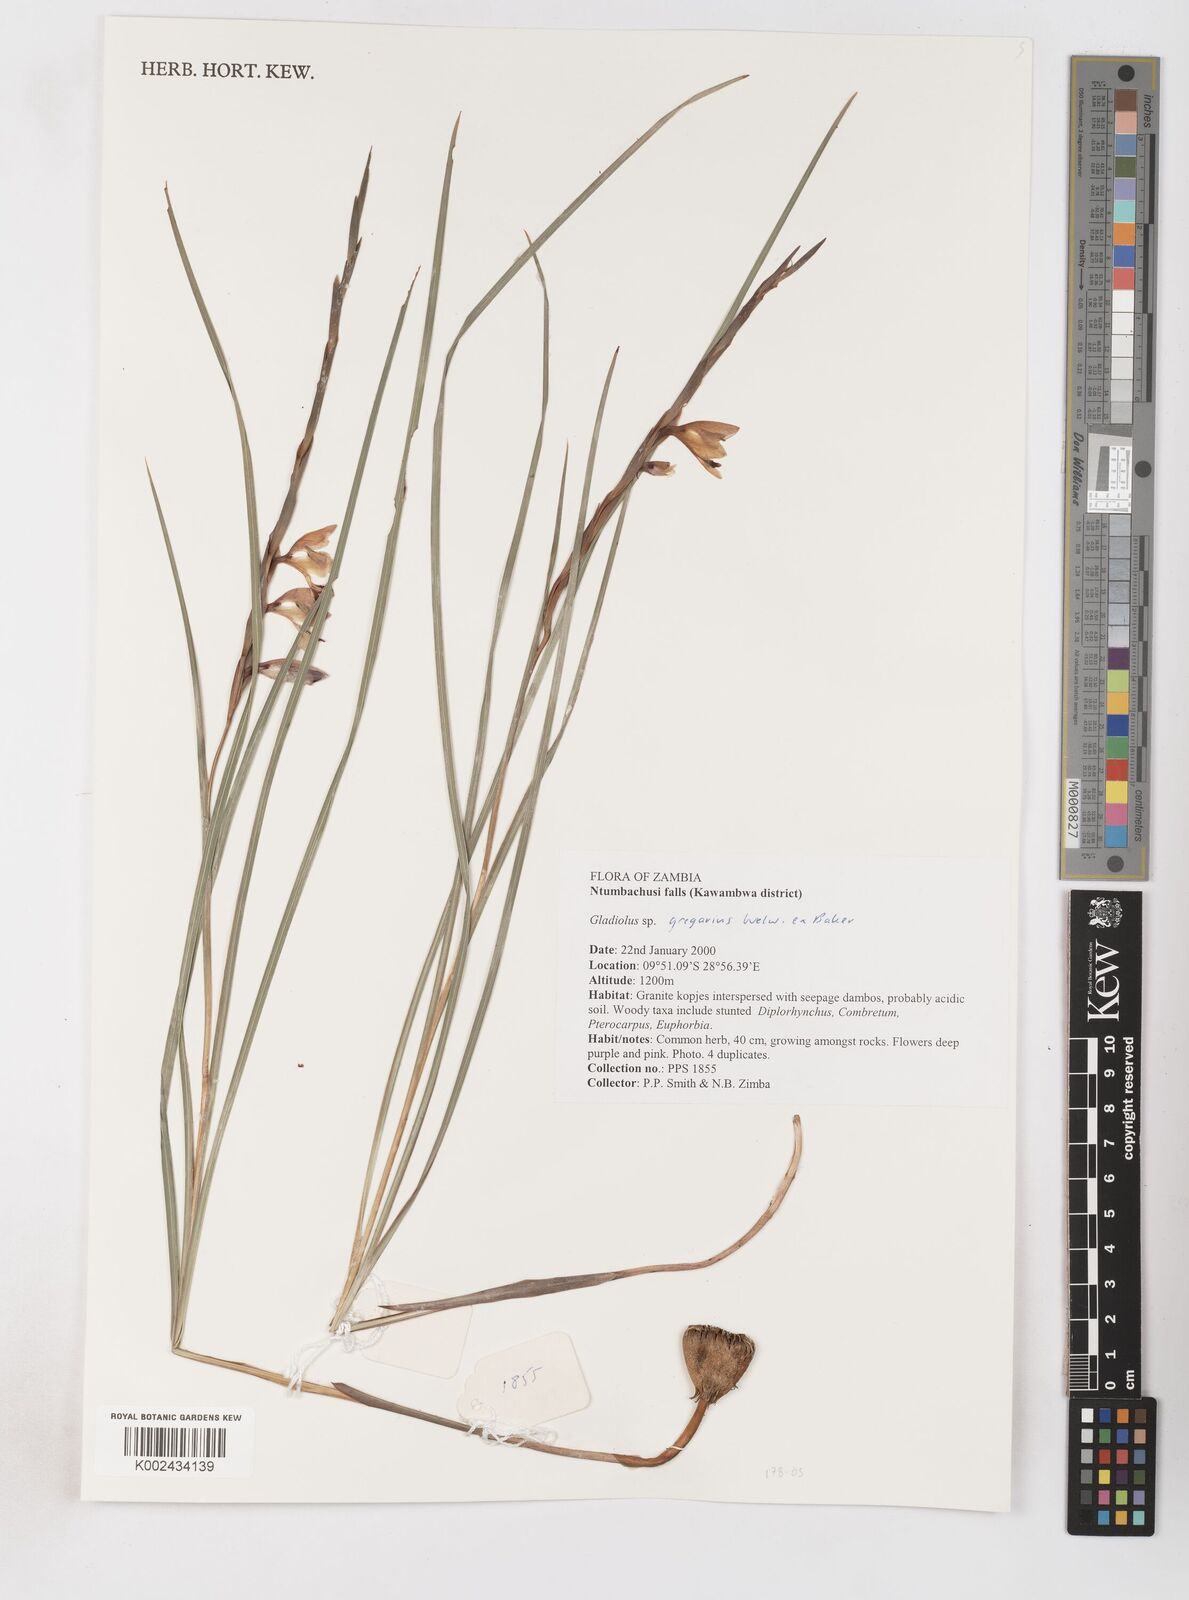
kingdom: Plantae
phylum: Tracheophyta
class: Liliopsida
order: Asparagales
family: Iridaceae
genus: Gladiolus
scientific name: Gladiolus gregarius
